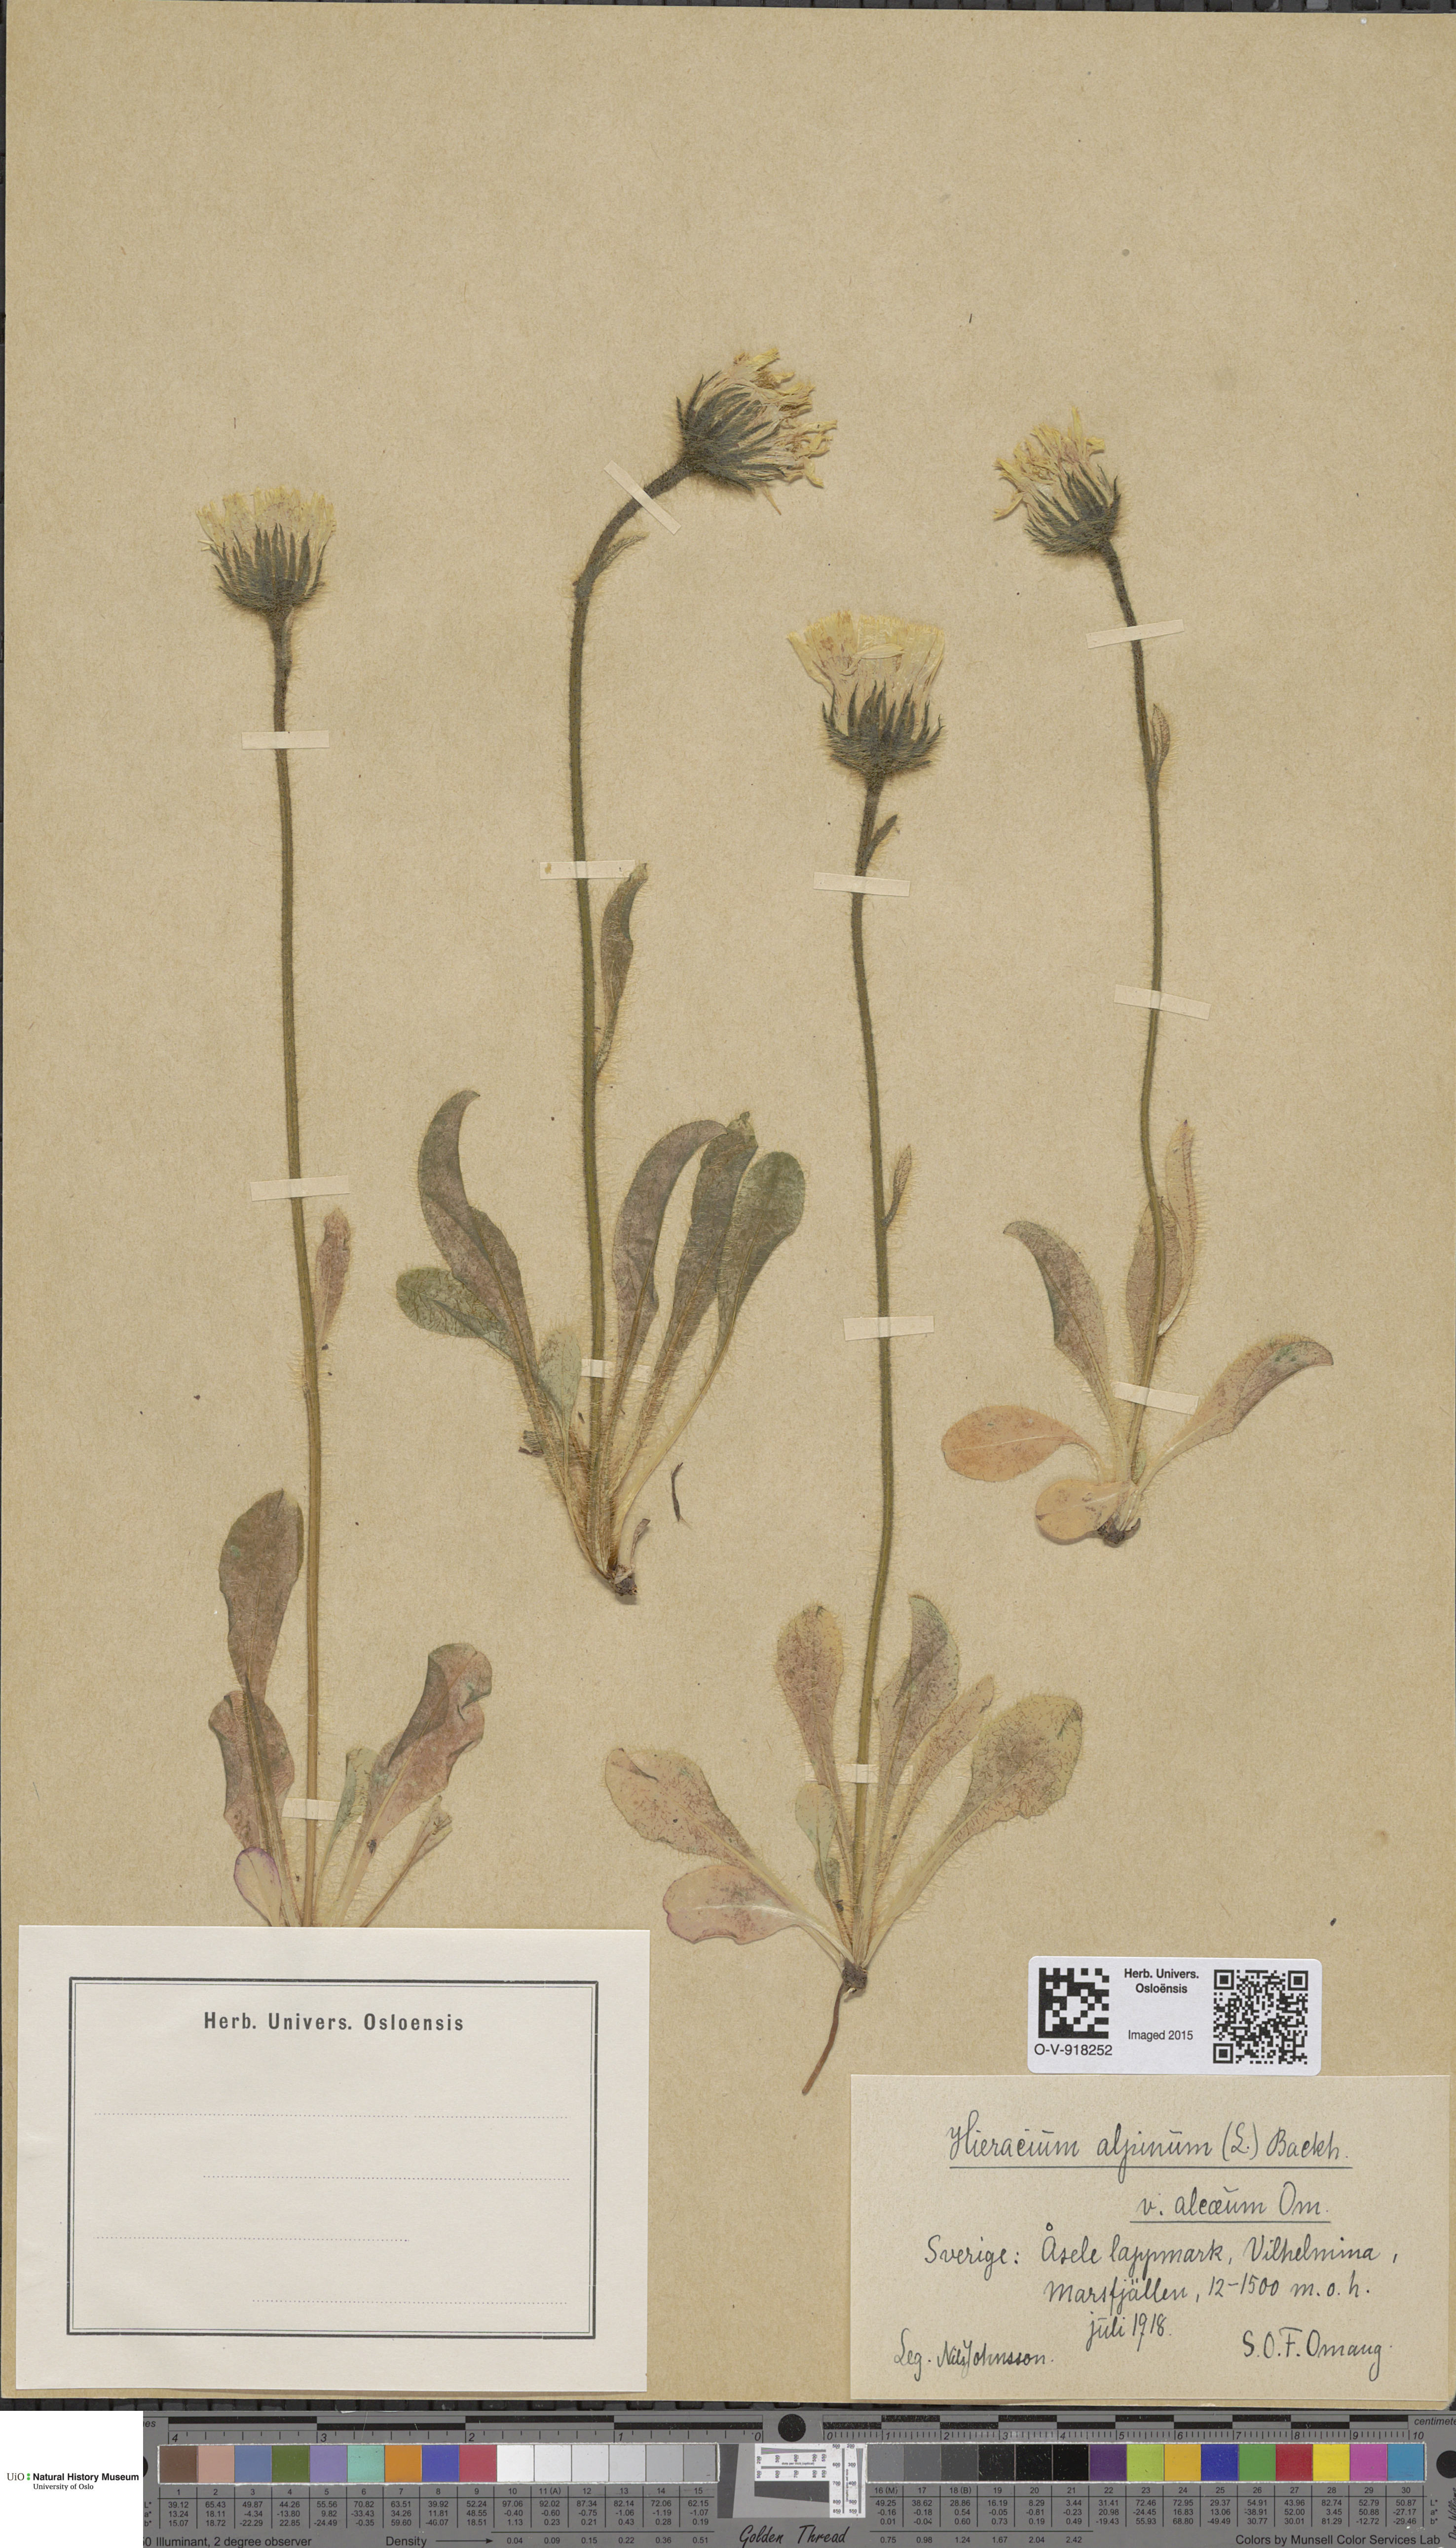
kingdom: Plantae
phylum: Tracheophyta
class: Magnoliopsida
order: Asterales
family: Asteraceae
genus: Hieracium
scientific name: Hieracium alpinum
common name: Alpine hawkweed
